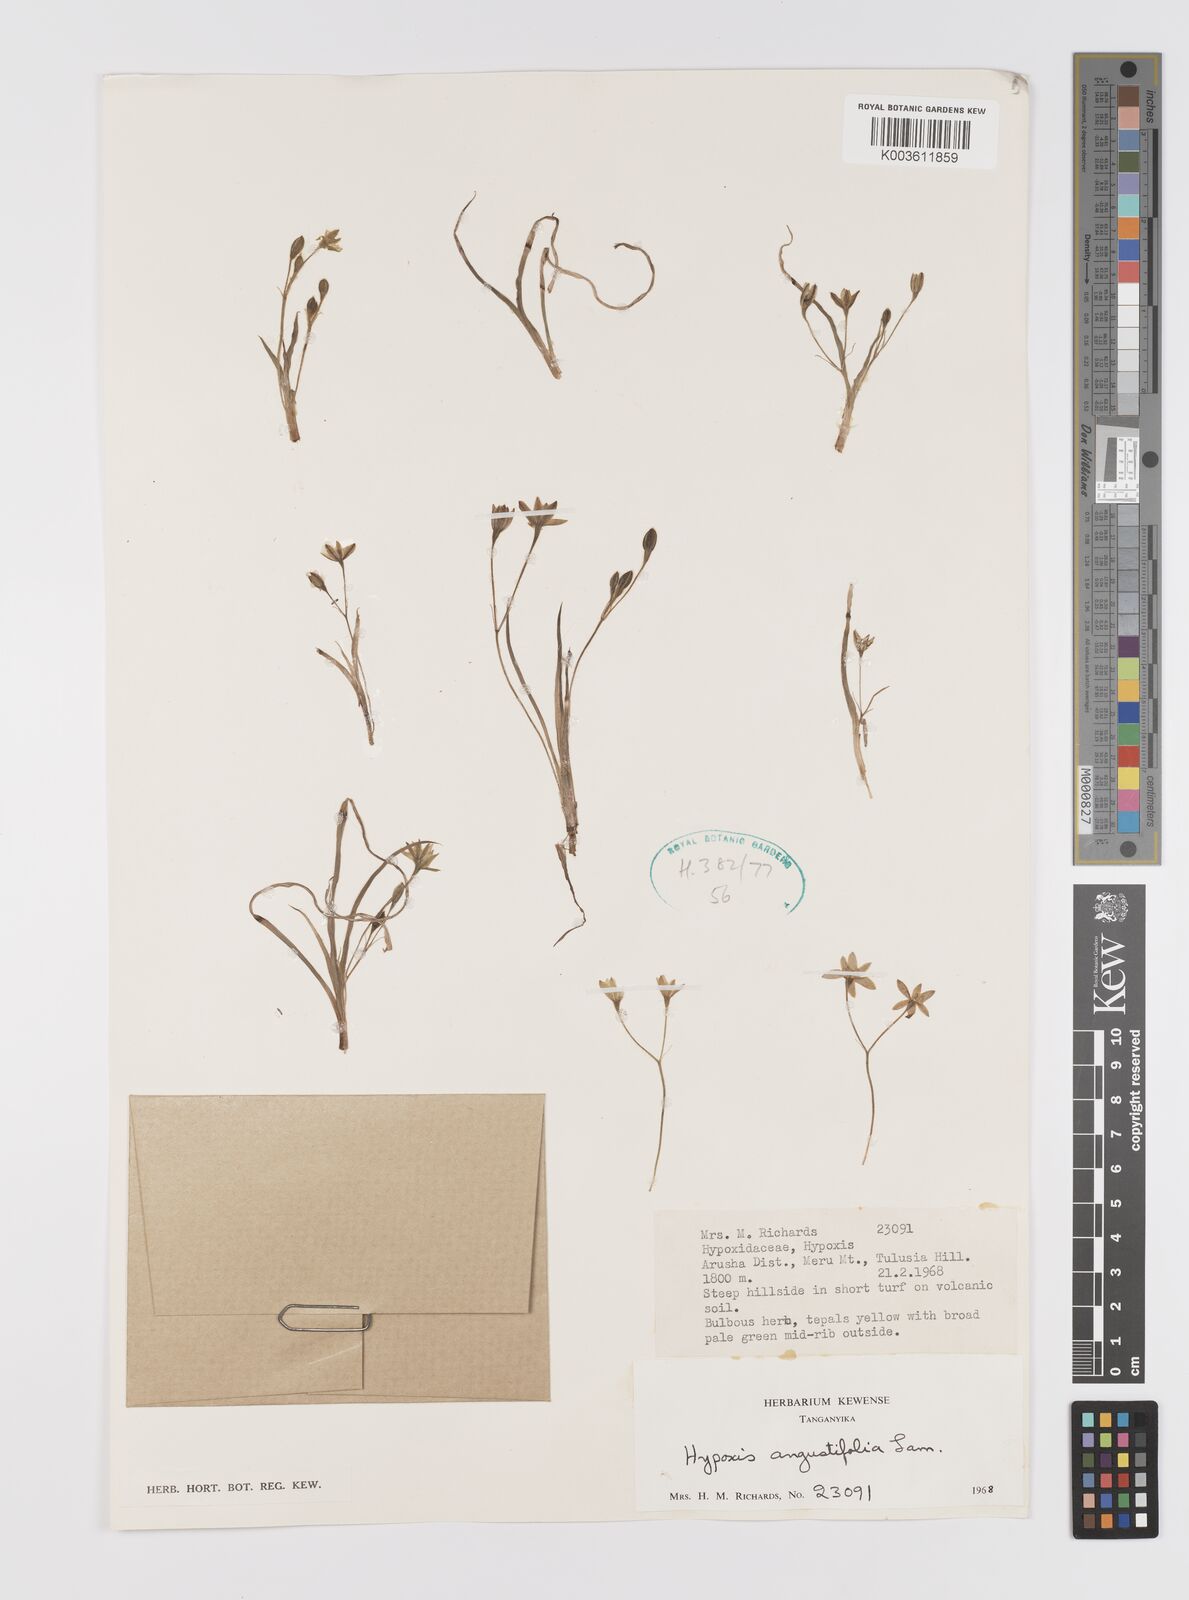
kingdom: Plantae
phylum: Tracheophyta
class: Liliopsida
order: Asparagales
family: Hypoxidaceae
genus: Hypoxis
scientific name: Hypoxis angustifolia
